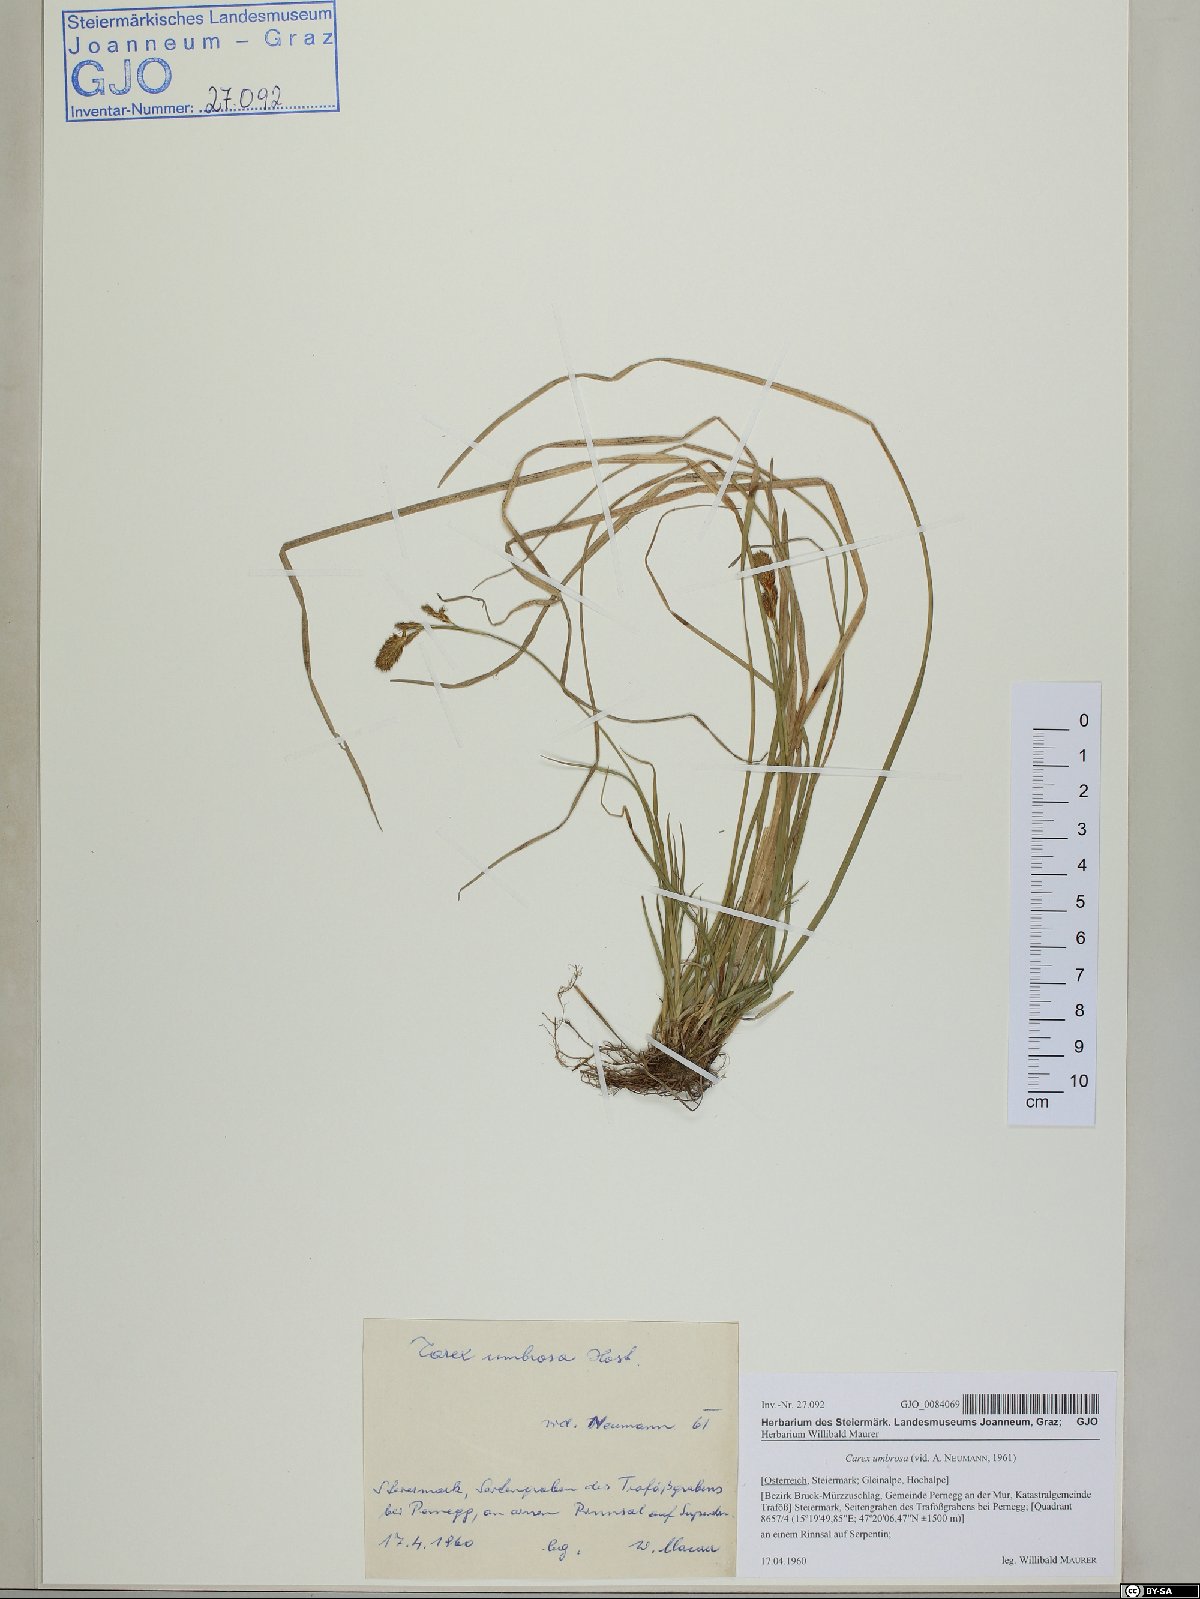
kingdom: Plantae
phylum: Tracheophyta
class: Liliopsida
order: Poales
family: Cyperaceae
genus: Carex
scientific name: Carex umbrosa
